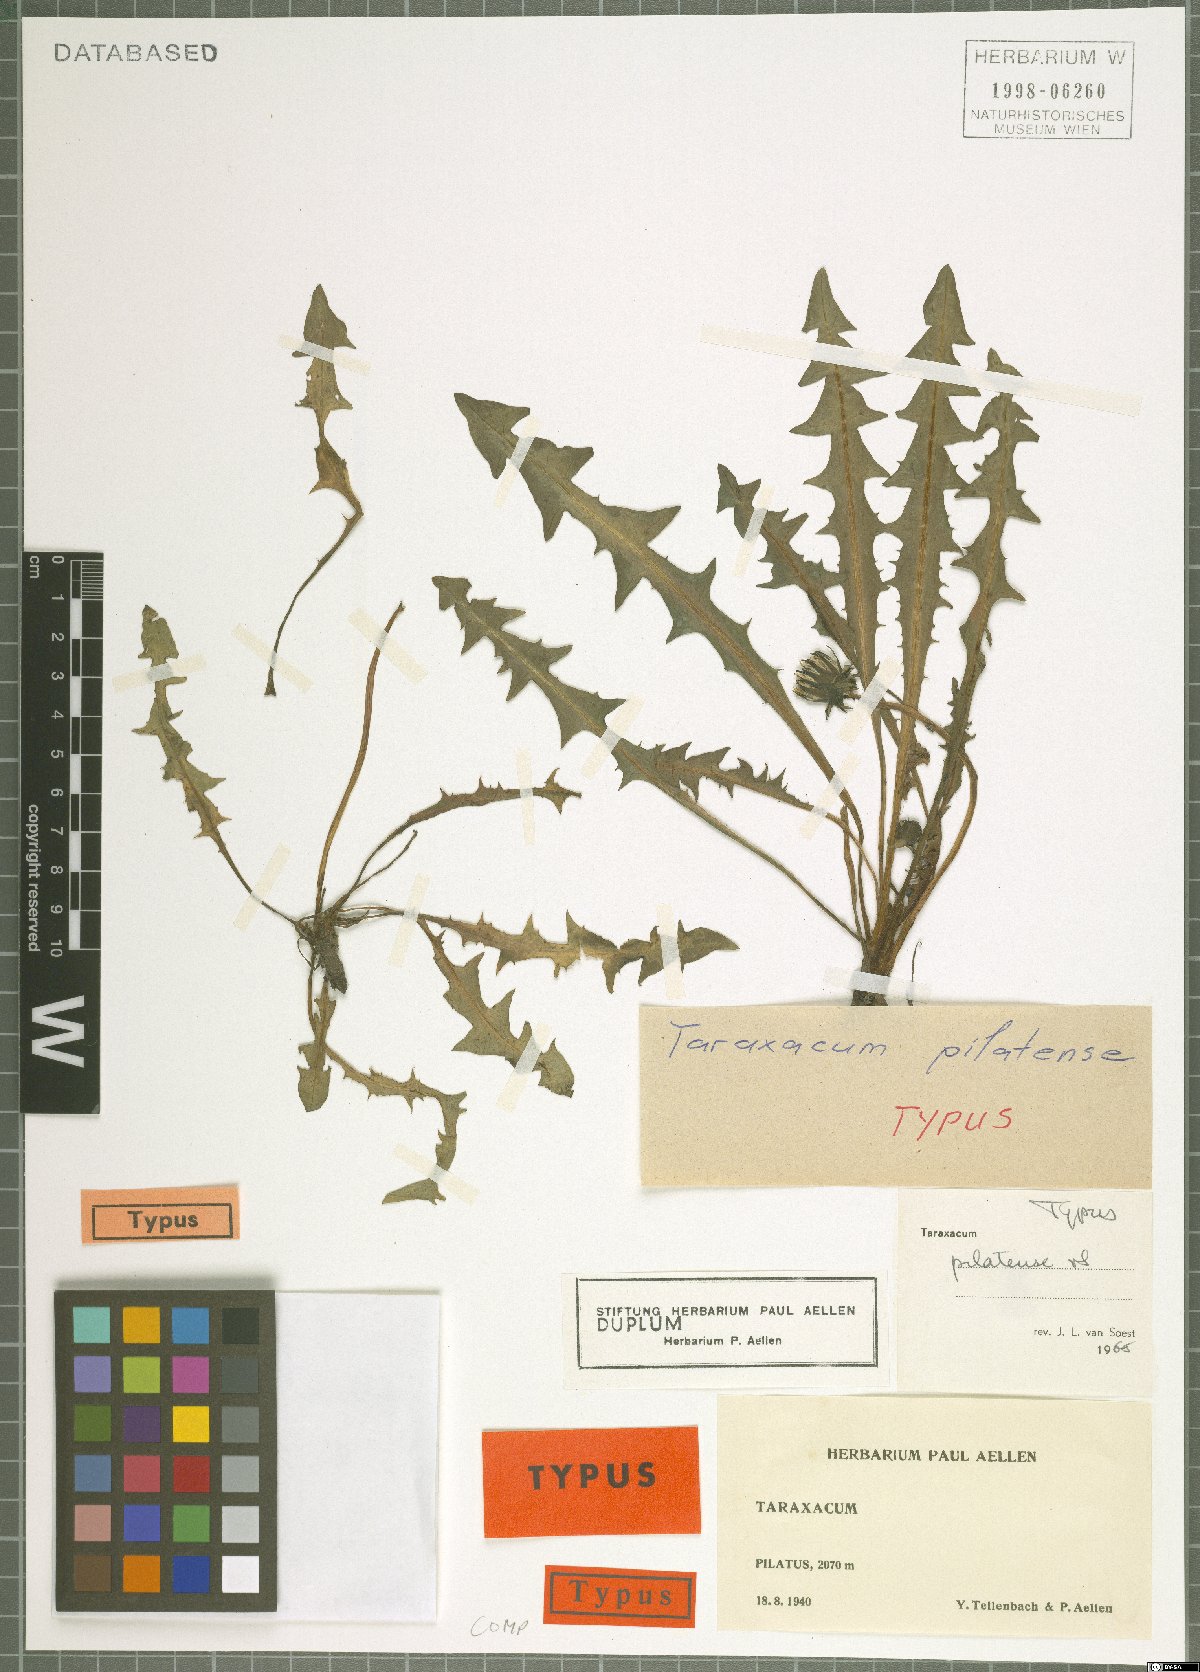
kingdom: Plantae
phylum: Tracheophyta
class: Magnoliopsida
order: Asterales
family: Asteraceae
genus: Taraxacum
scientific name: Taraxacum pilatense
